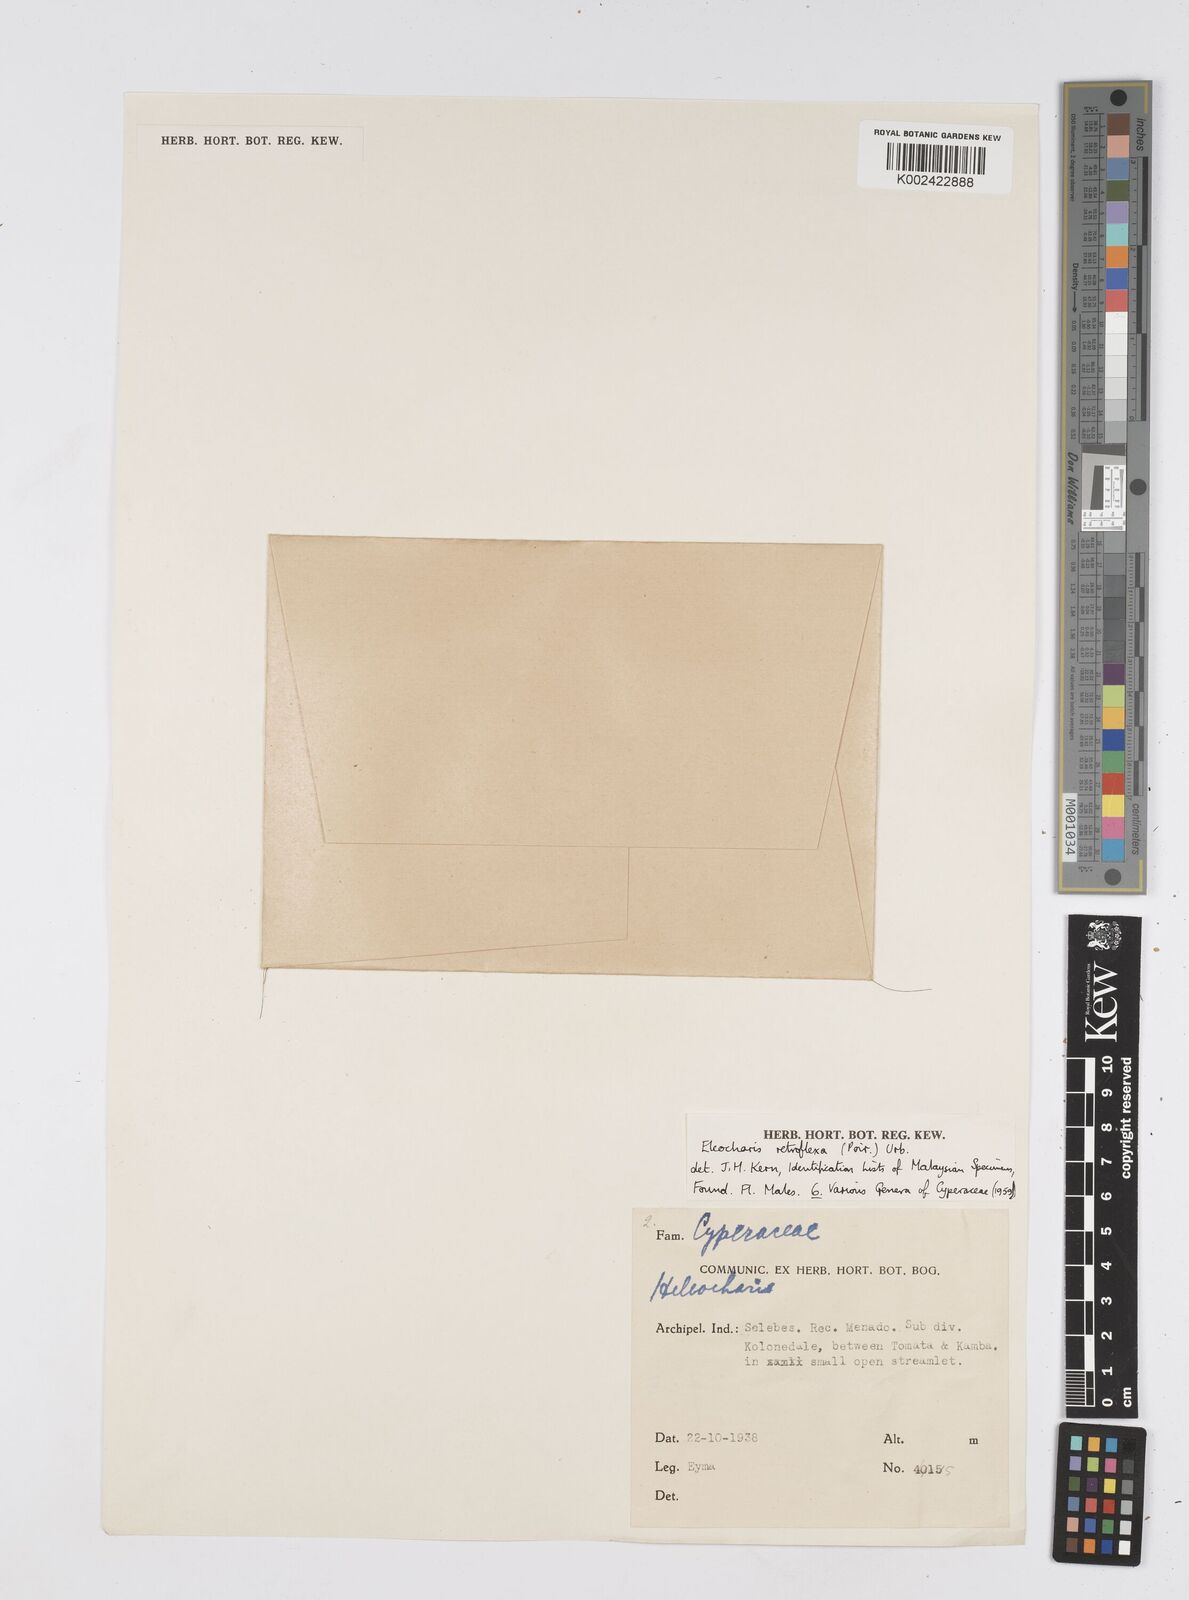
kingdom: Plantae
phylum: Tracheophyta
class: Liliopsida
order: Poales
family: Cyperaceae
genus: Eleocharis
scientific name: Eleocharis retroflexa
